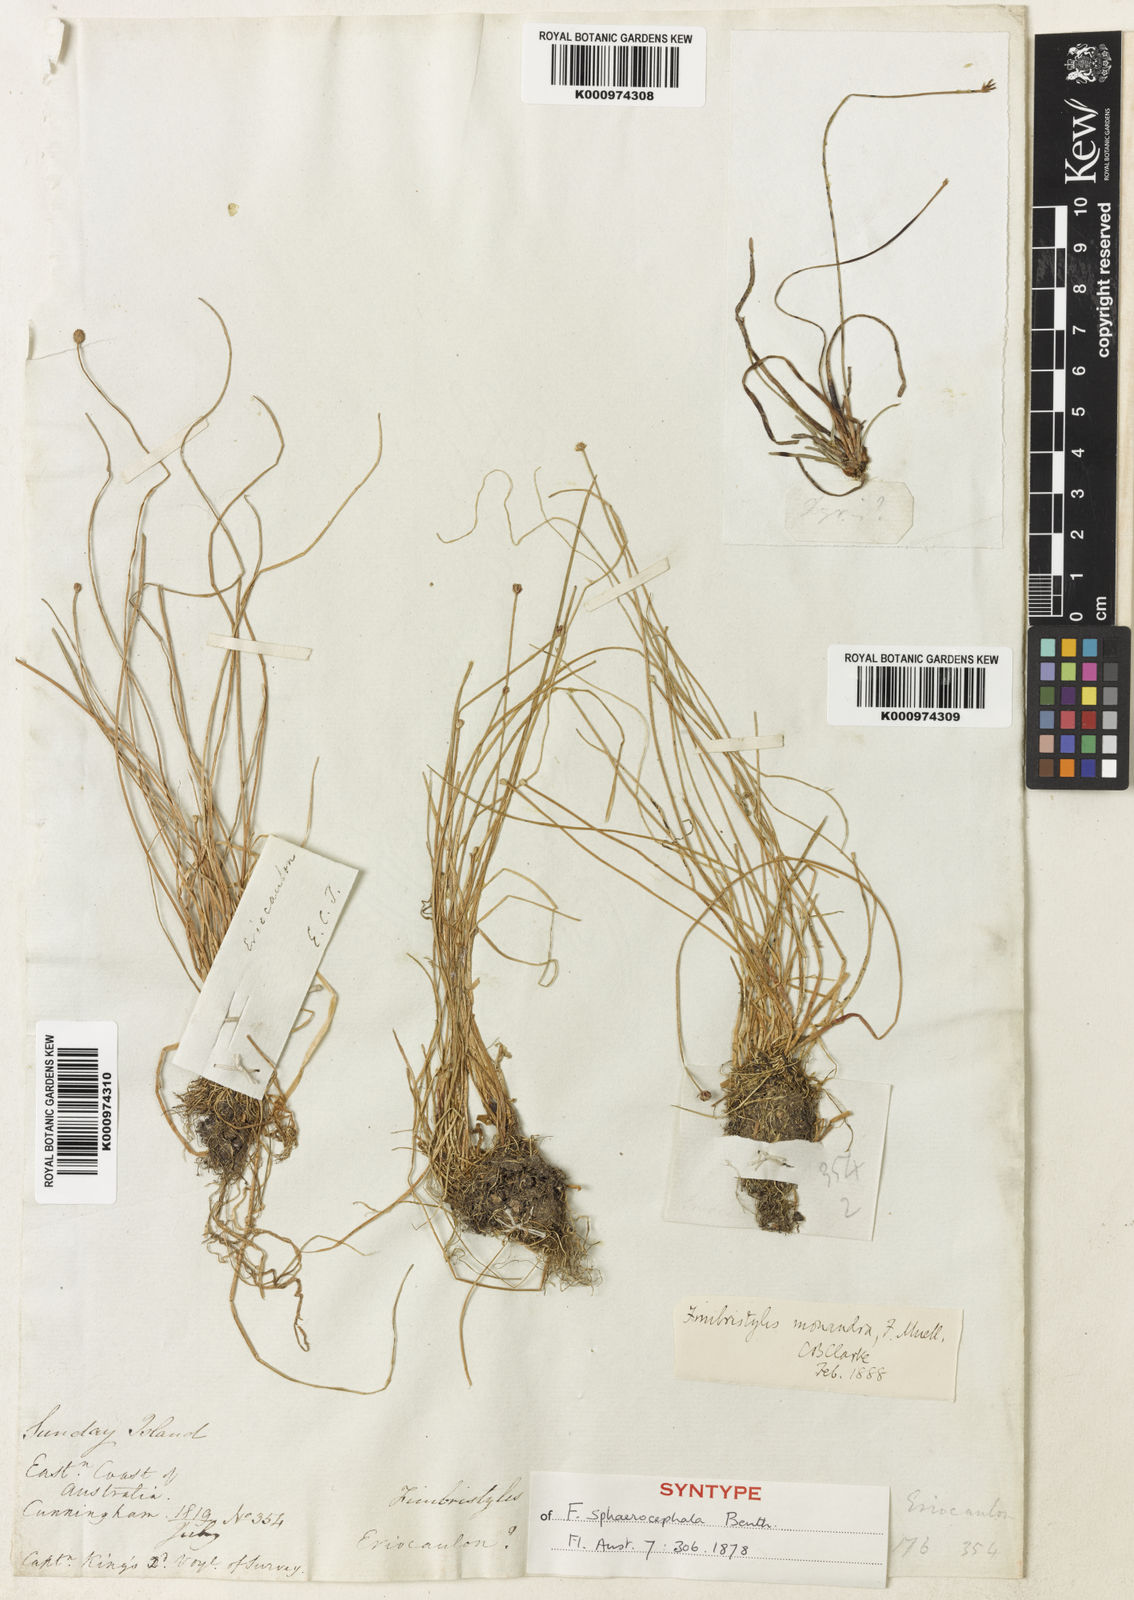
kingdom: Plantae
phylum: Tracheophyta
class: Liliopsida
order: Poales
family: Cyperaceae
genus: Fimbristylis
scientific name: Fimbristylis sphaerocephala
